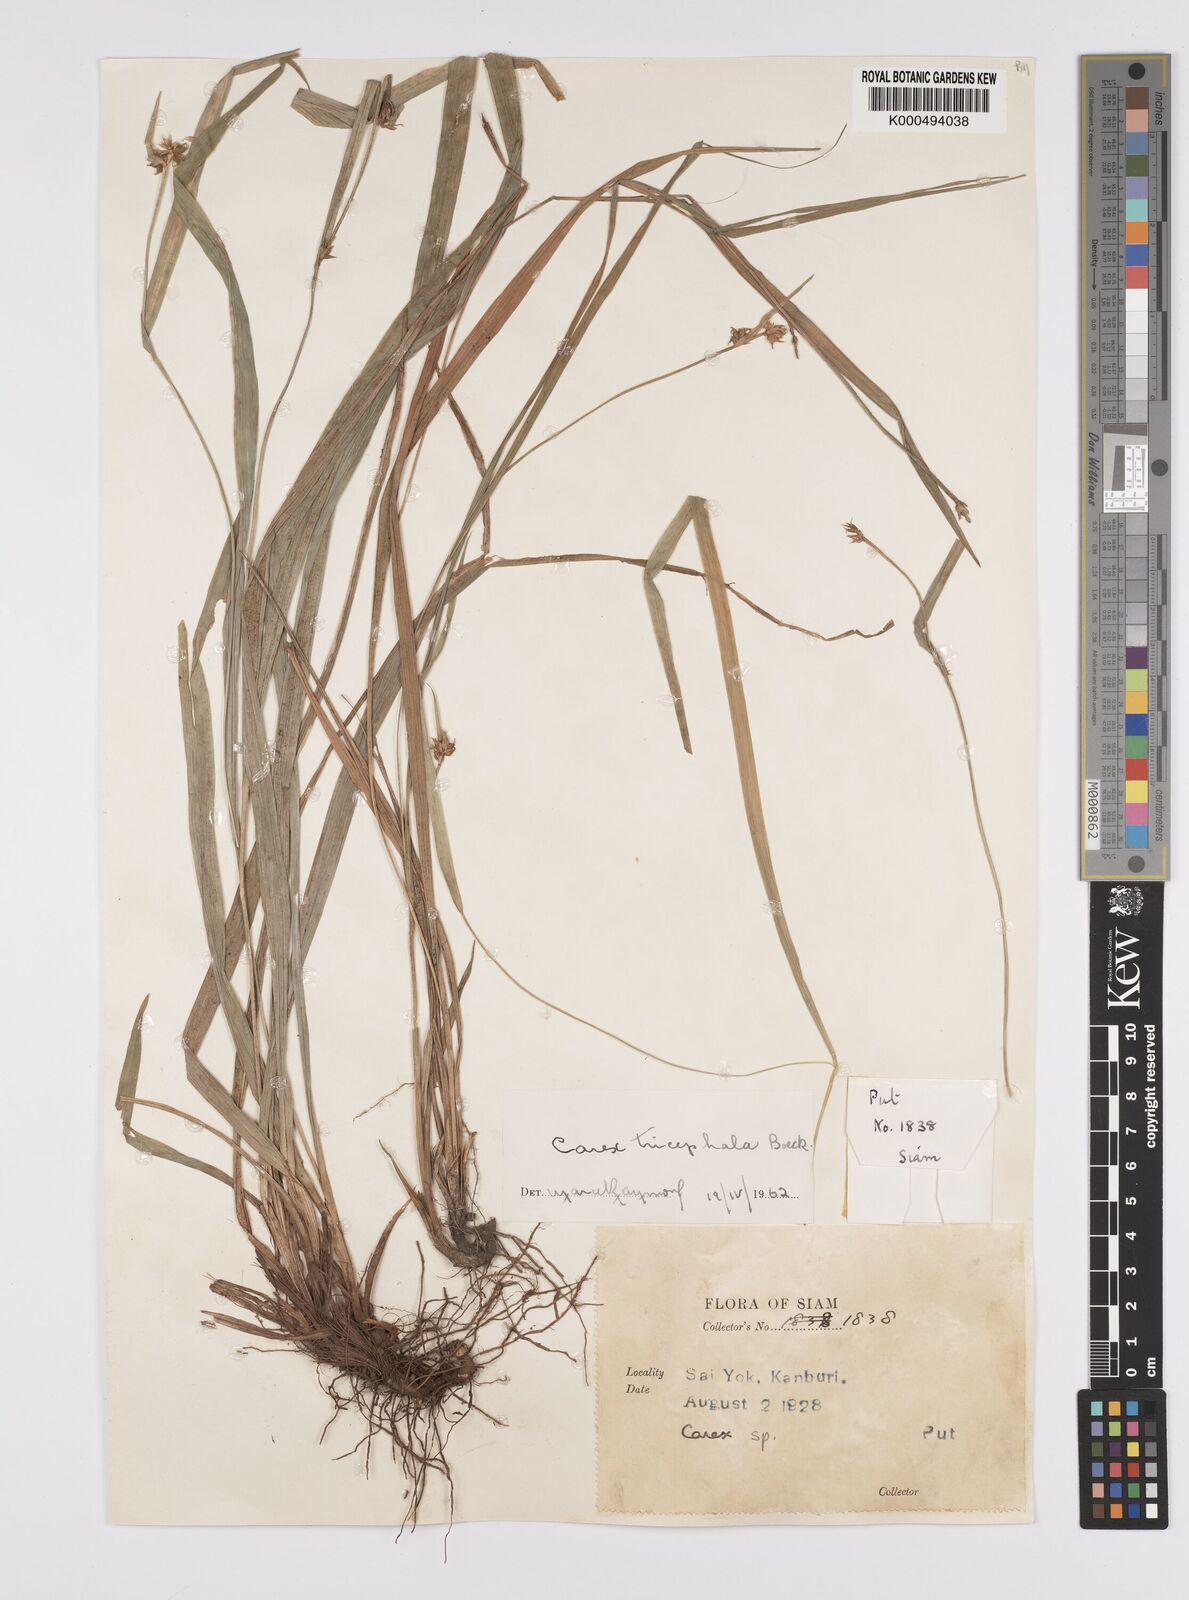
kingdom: Plantae
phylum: Tracheophyta
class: Liliopsida
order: Poales
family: Cyperaceae
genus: Carex
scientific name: Carex tricephala
